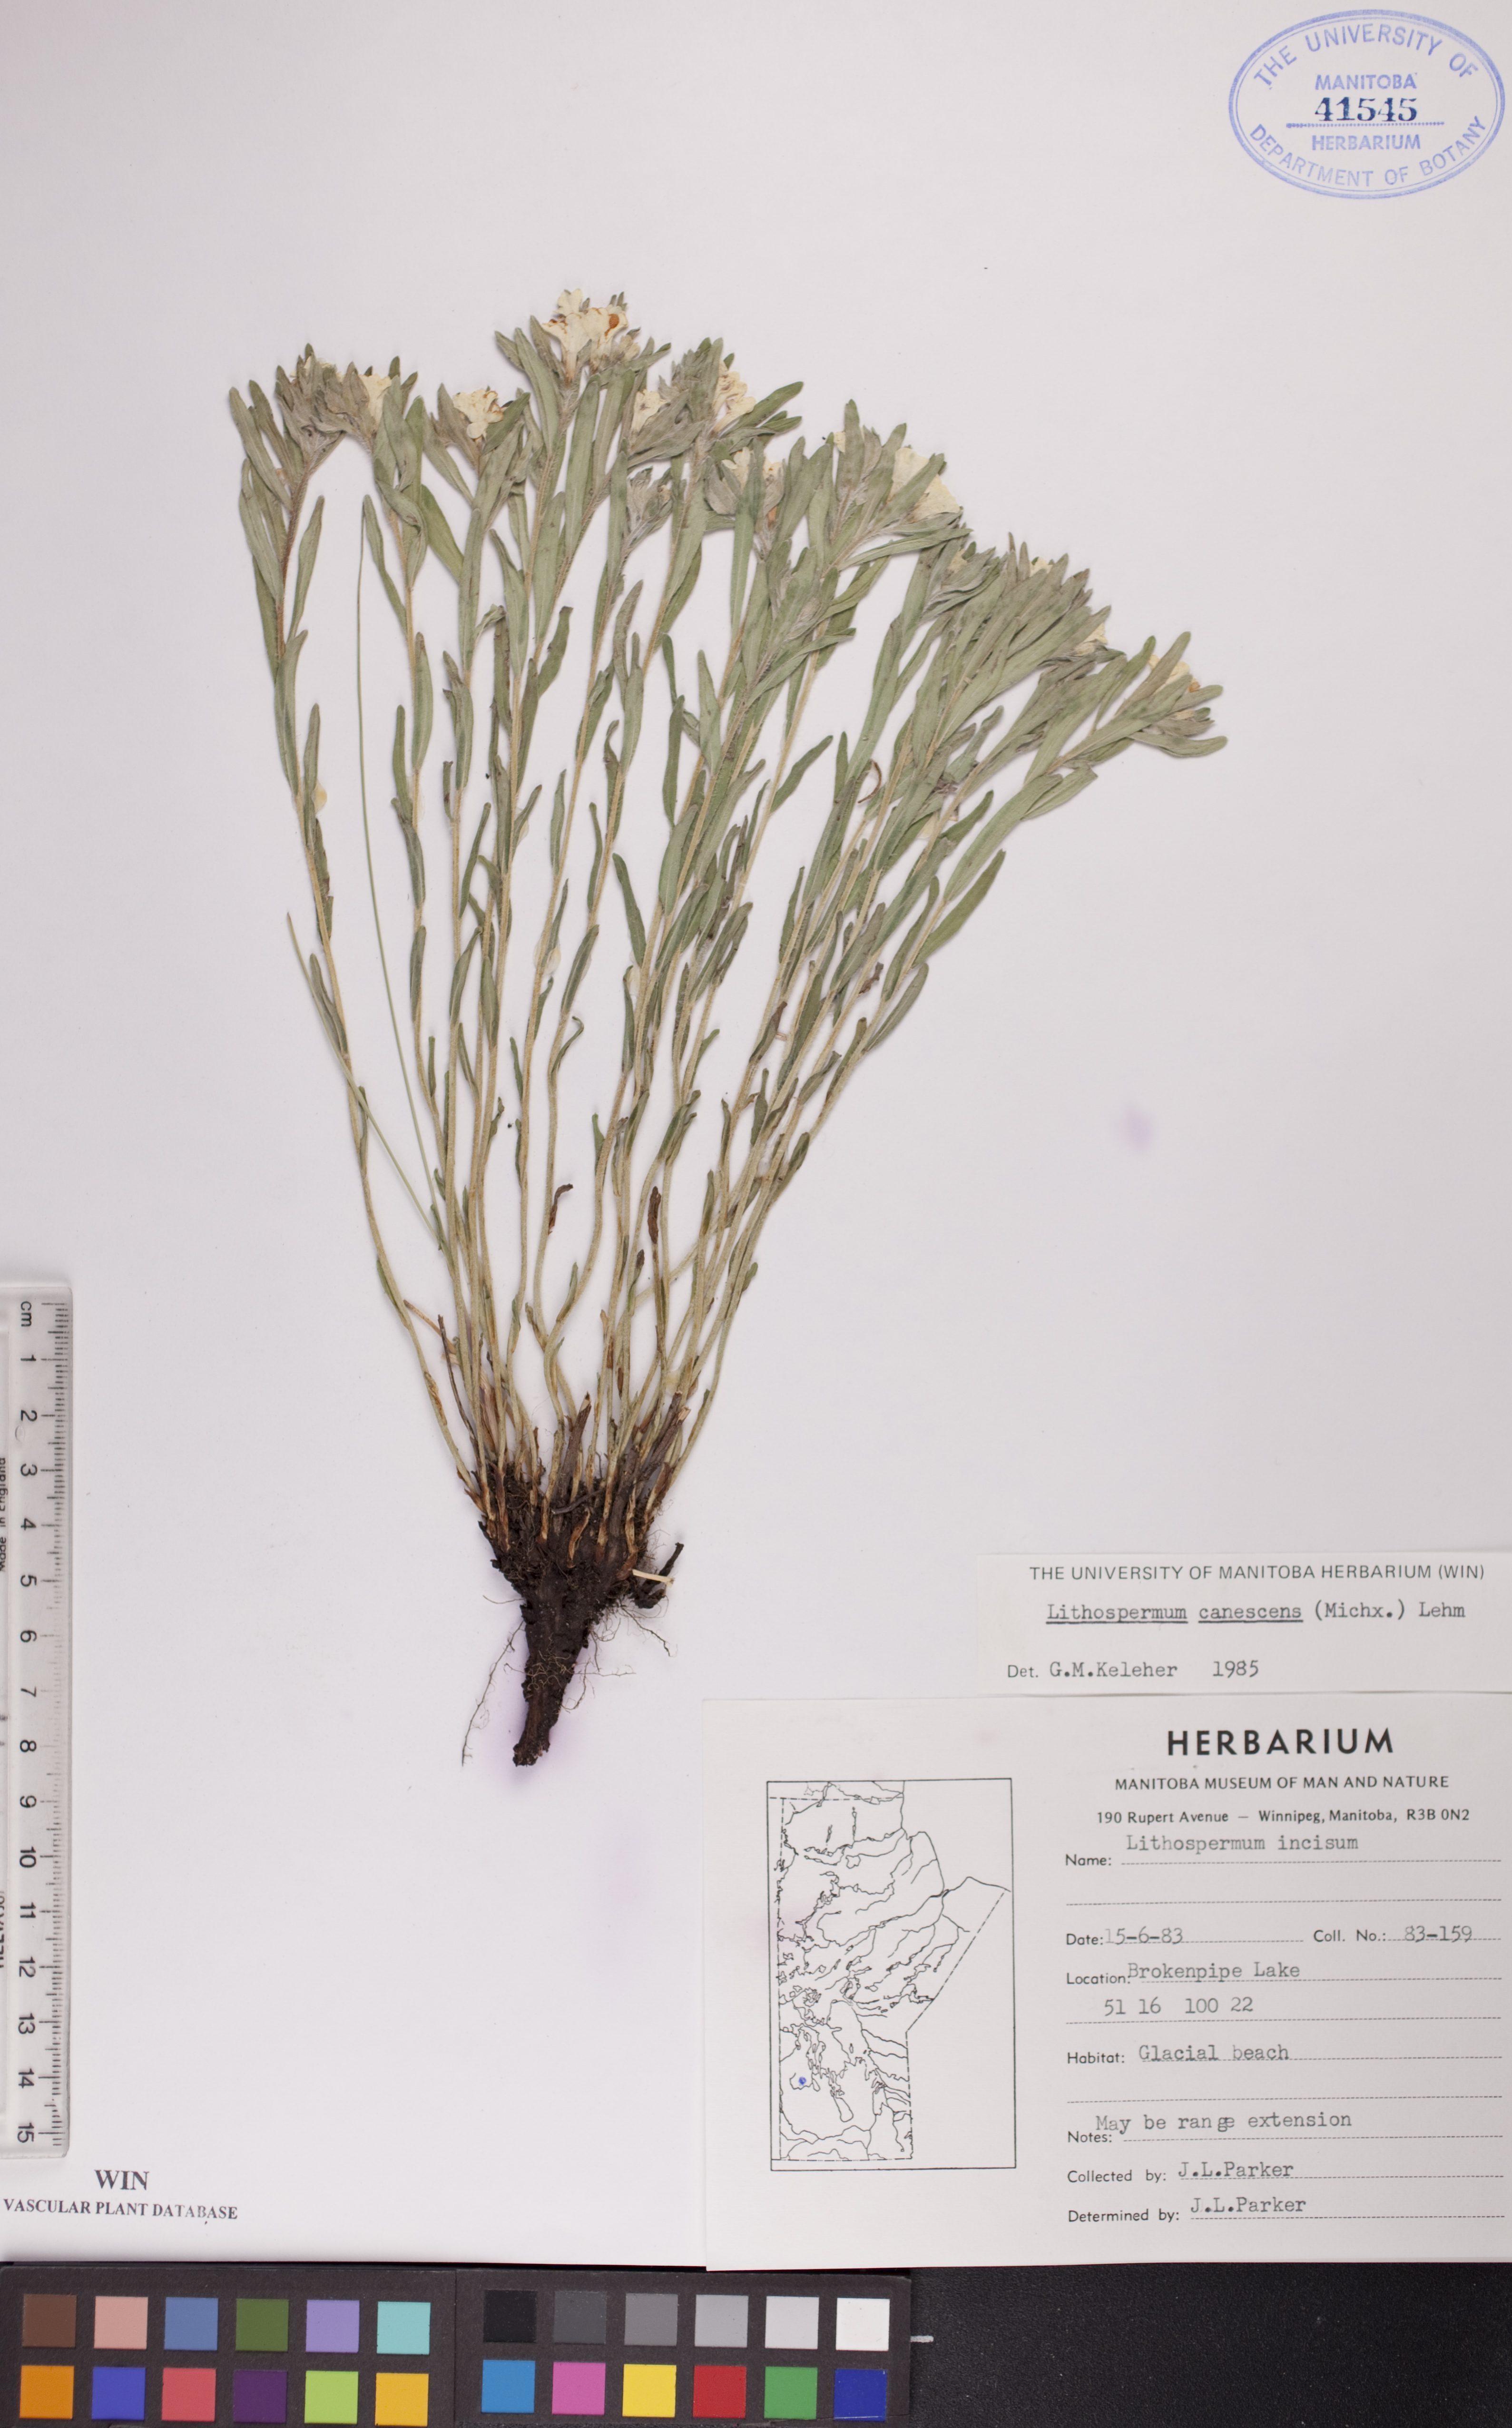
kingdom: Plantae
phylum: Tracheophyta
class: Magnoliopsida
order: Boraginales
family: Boraginaceae
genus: Lithospermum
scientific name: Lithospermum canescens
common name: Hoary puccoon
